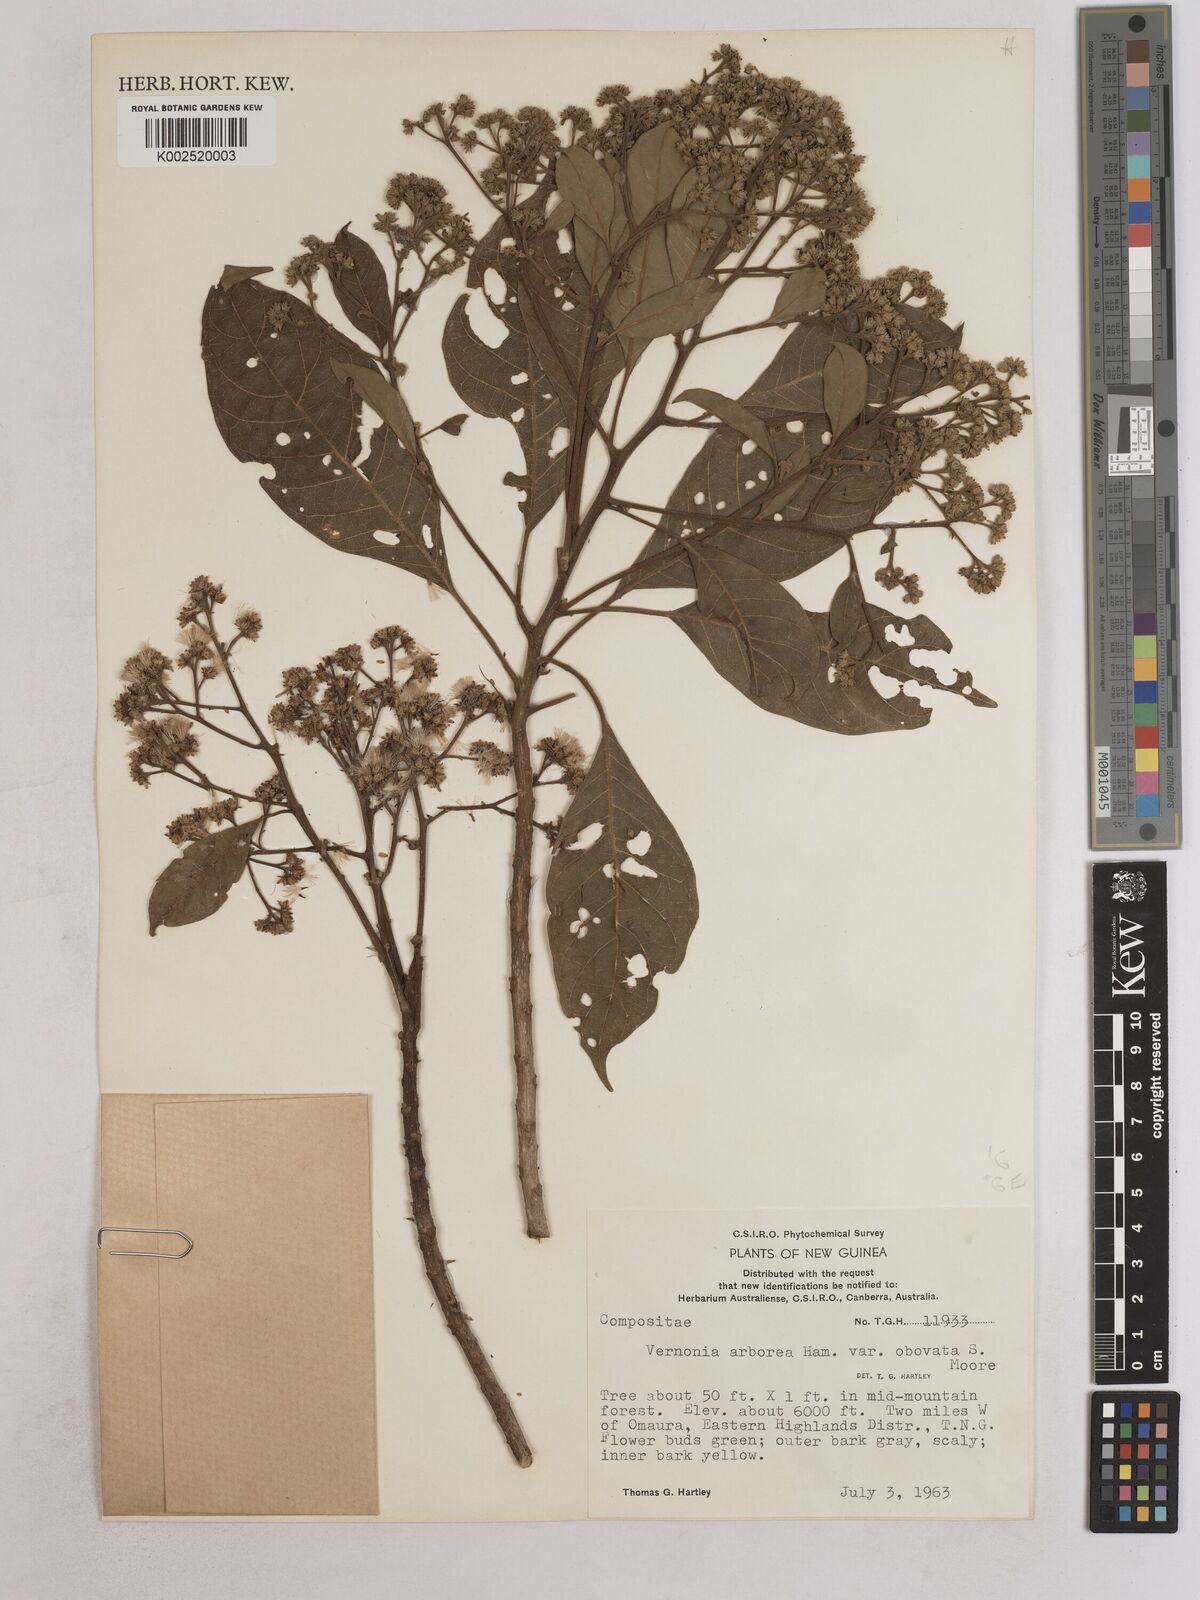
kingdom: Plantae
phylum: Tracheophyta
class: Magnoliopsida
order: Asterales
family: Asteraceae
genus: Strobocalyx
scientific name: Strobocalyx arborea
